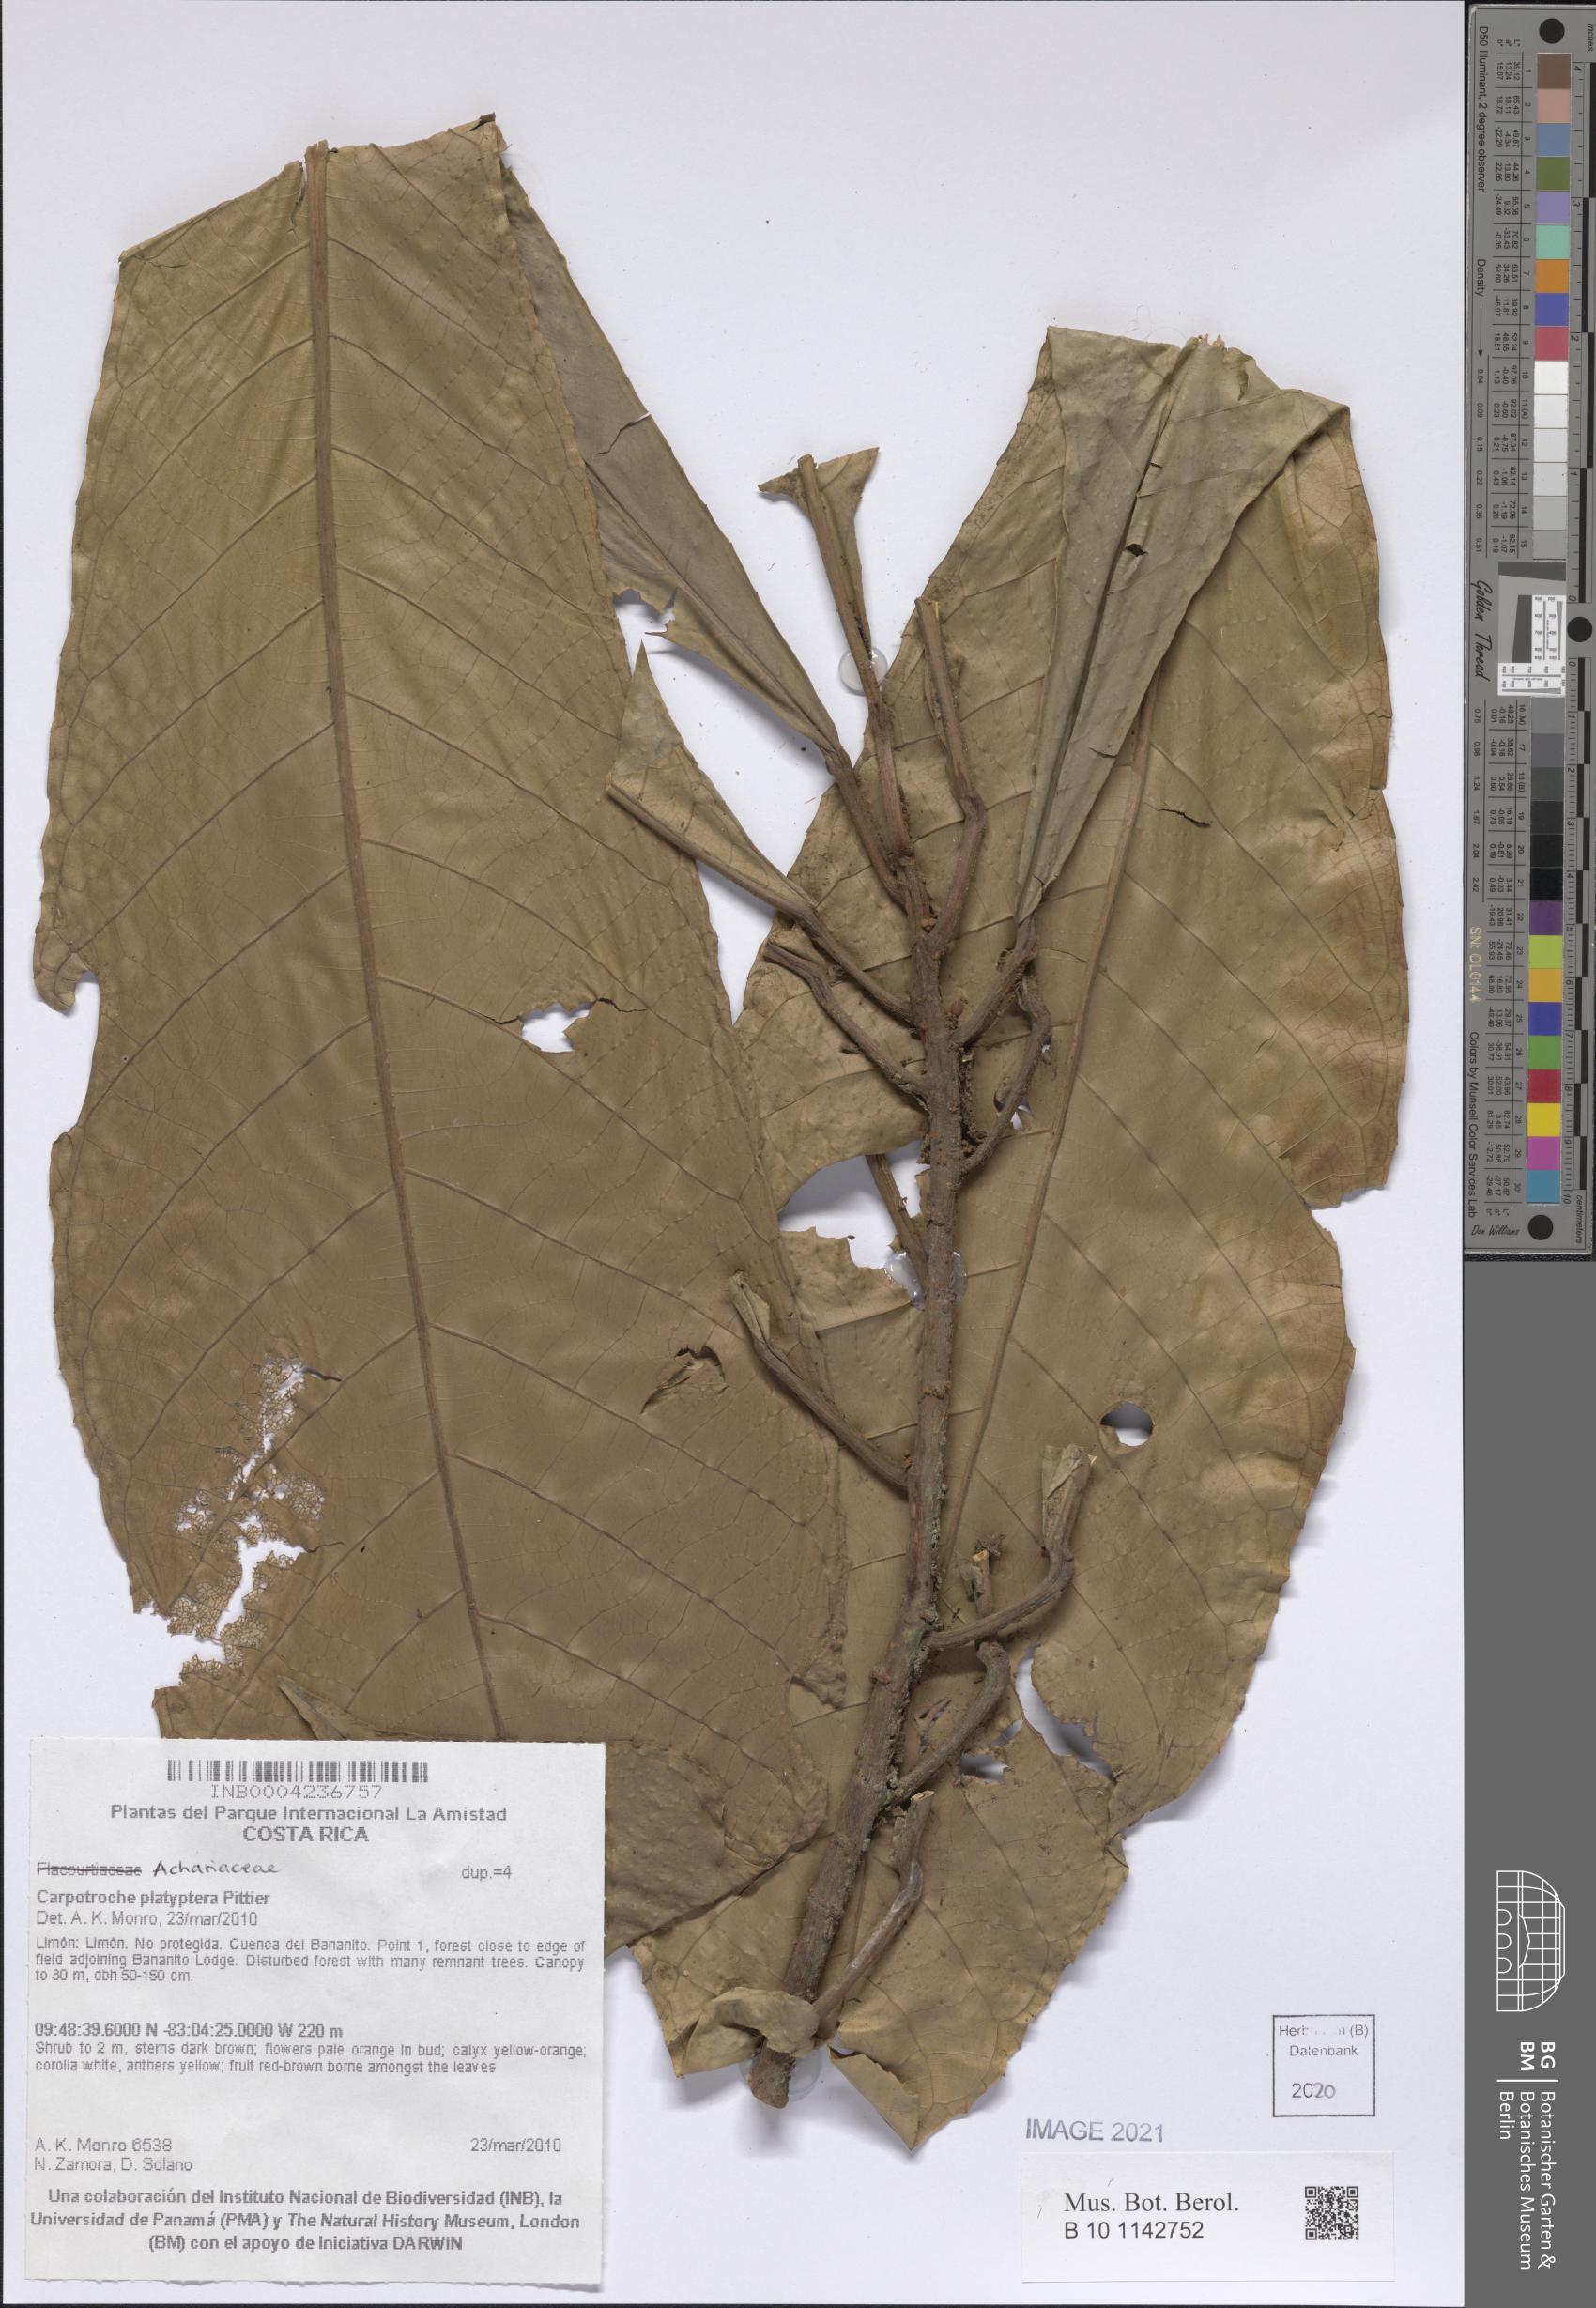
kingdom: Plantae
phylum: Tracheophyta
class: Magnoliopsida
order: Malpighiales
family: Achariaceae
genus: Carpotroche
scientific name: Carpotroche platyptera
